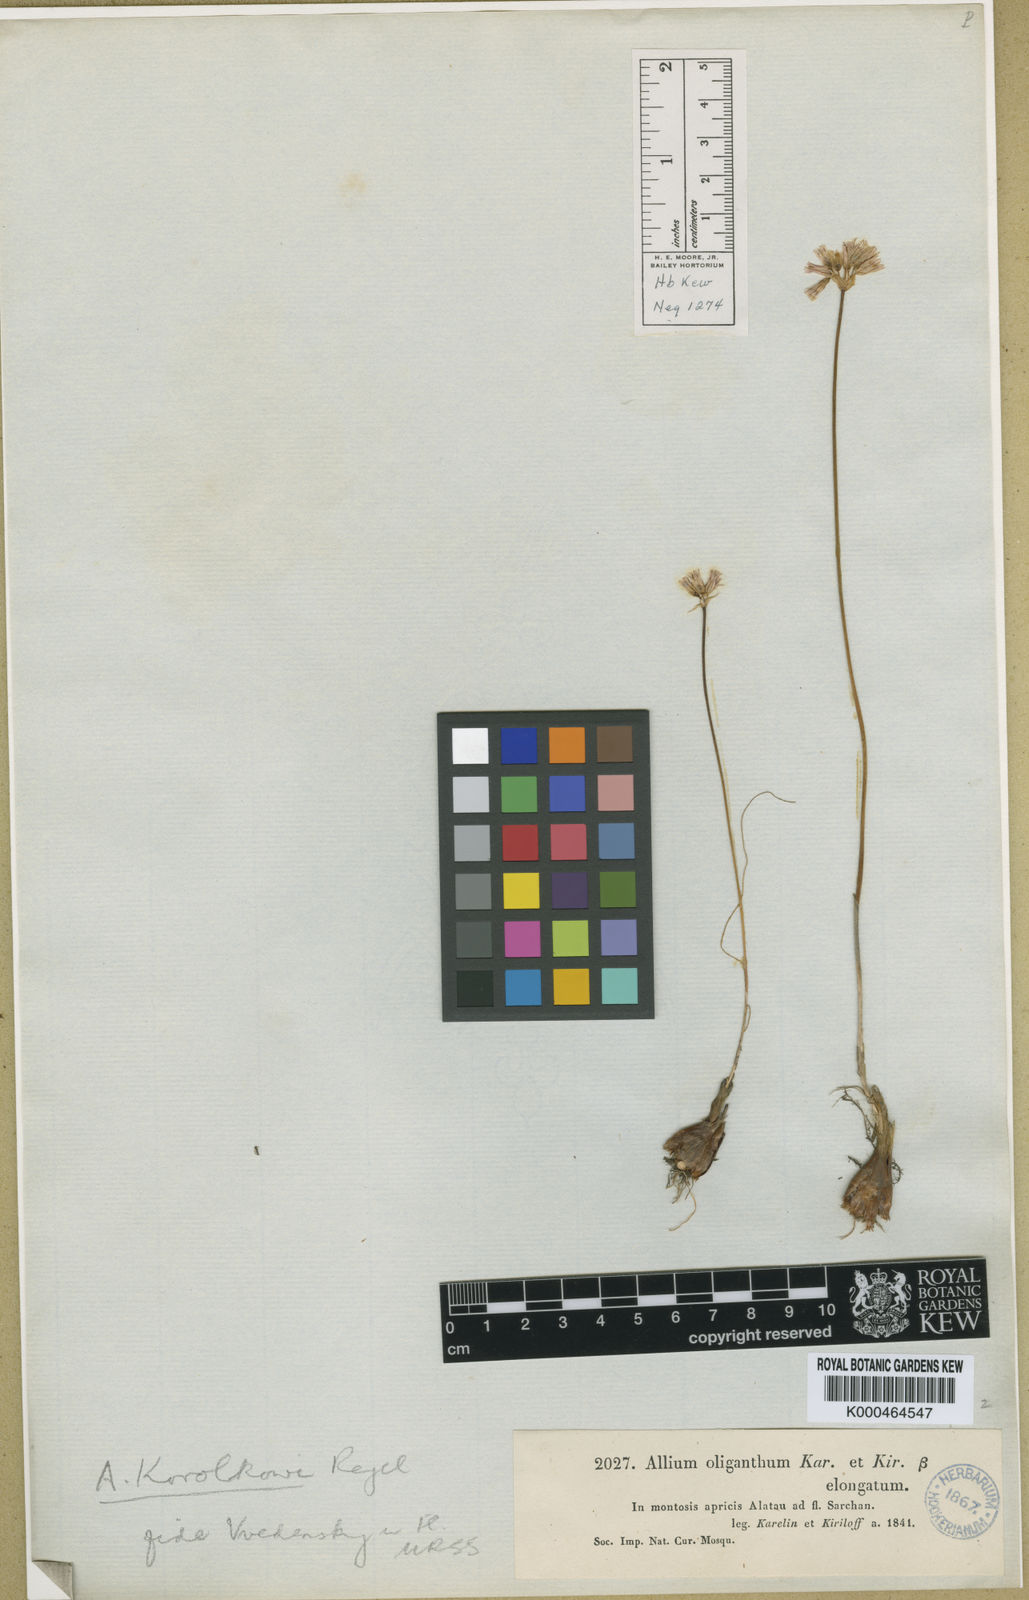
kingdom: Plantae
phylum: Tracheophyta
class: Liliopsida
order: Asparagales
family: Amaryllidaceae
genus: Allium
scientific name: Allium oliganthum
